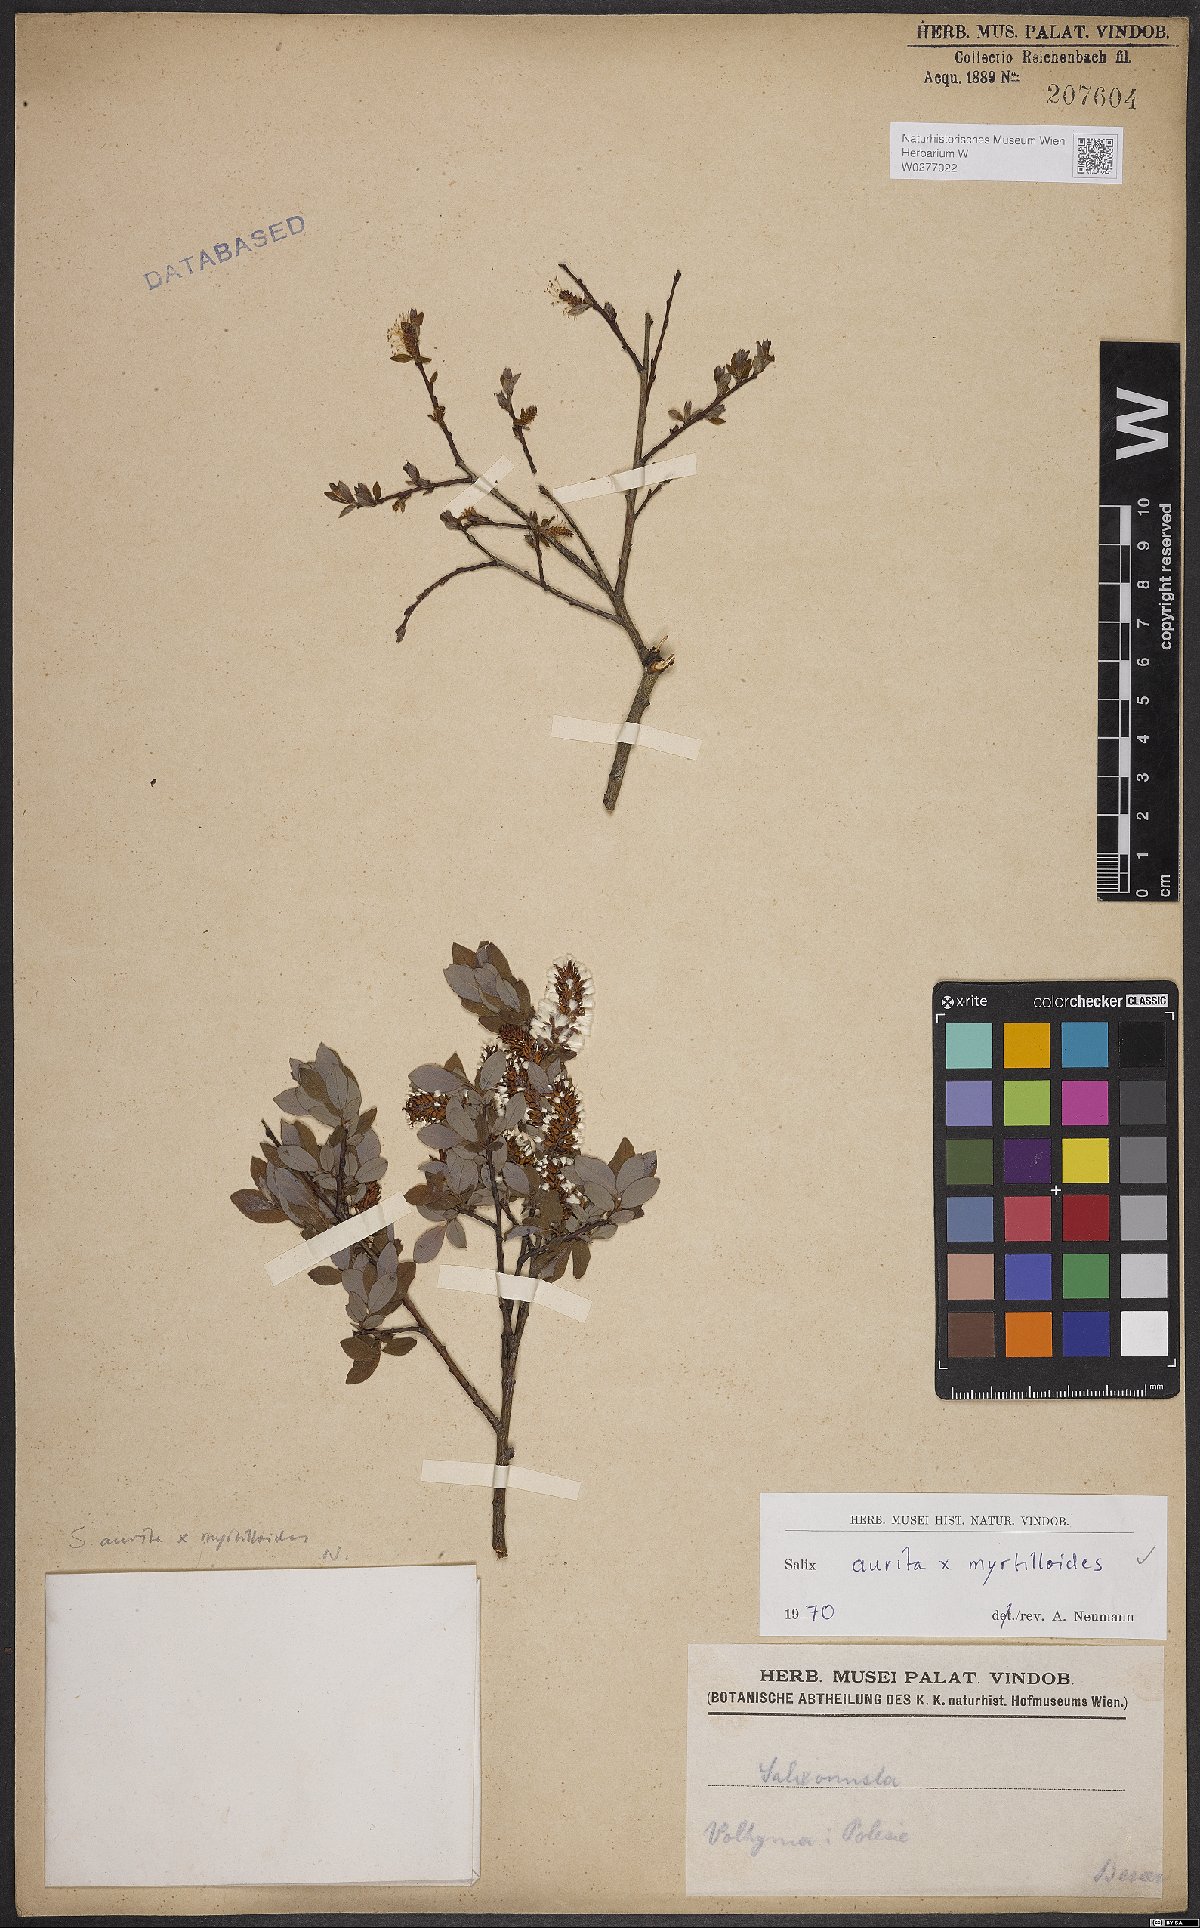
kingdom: Plantae
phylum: Tracheophyta
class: Magnoliopsida
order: Malpighiales
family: Salicaceae
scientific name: Salicaceae
